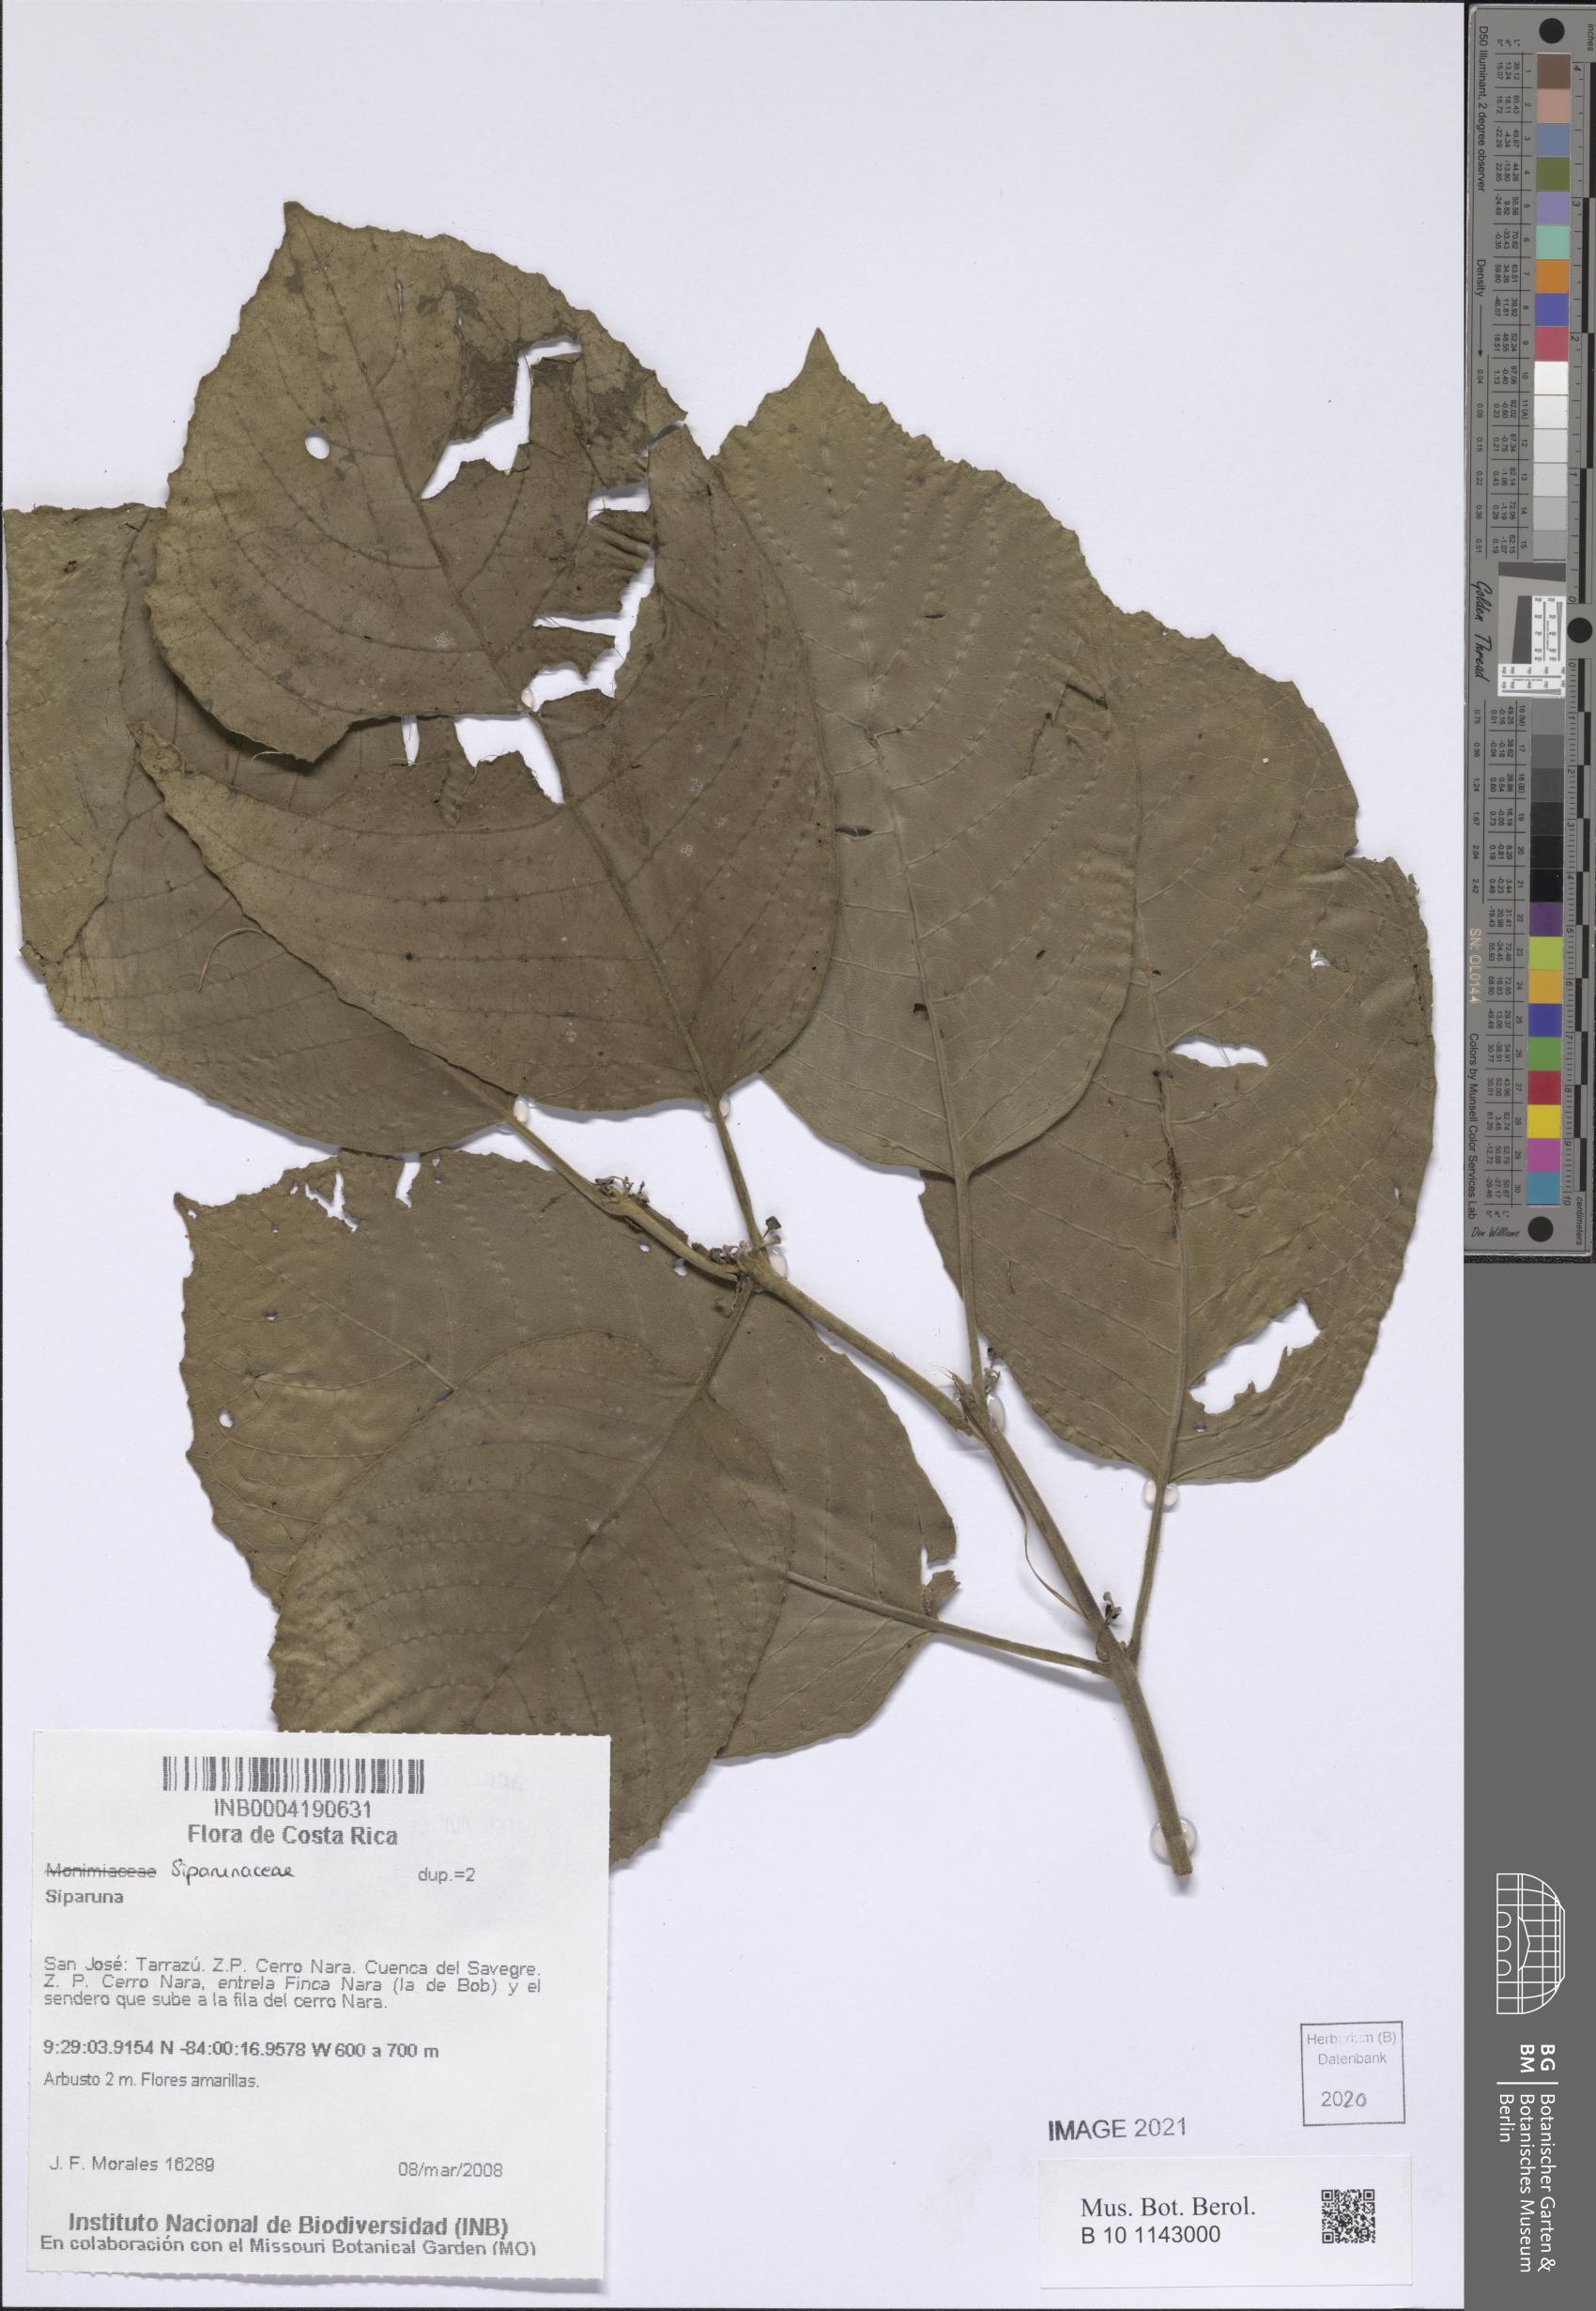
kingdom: Plantae
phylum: Tracheophyta
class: Magnoliopsida
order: Laurales
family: Siparunaceae
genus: Siparuna
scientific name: Siparuna
